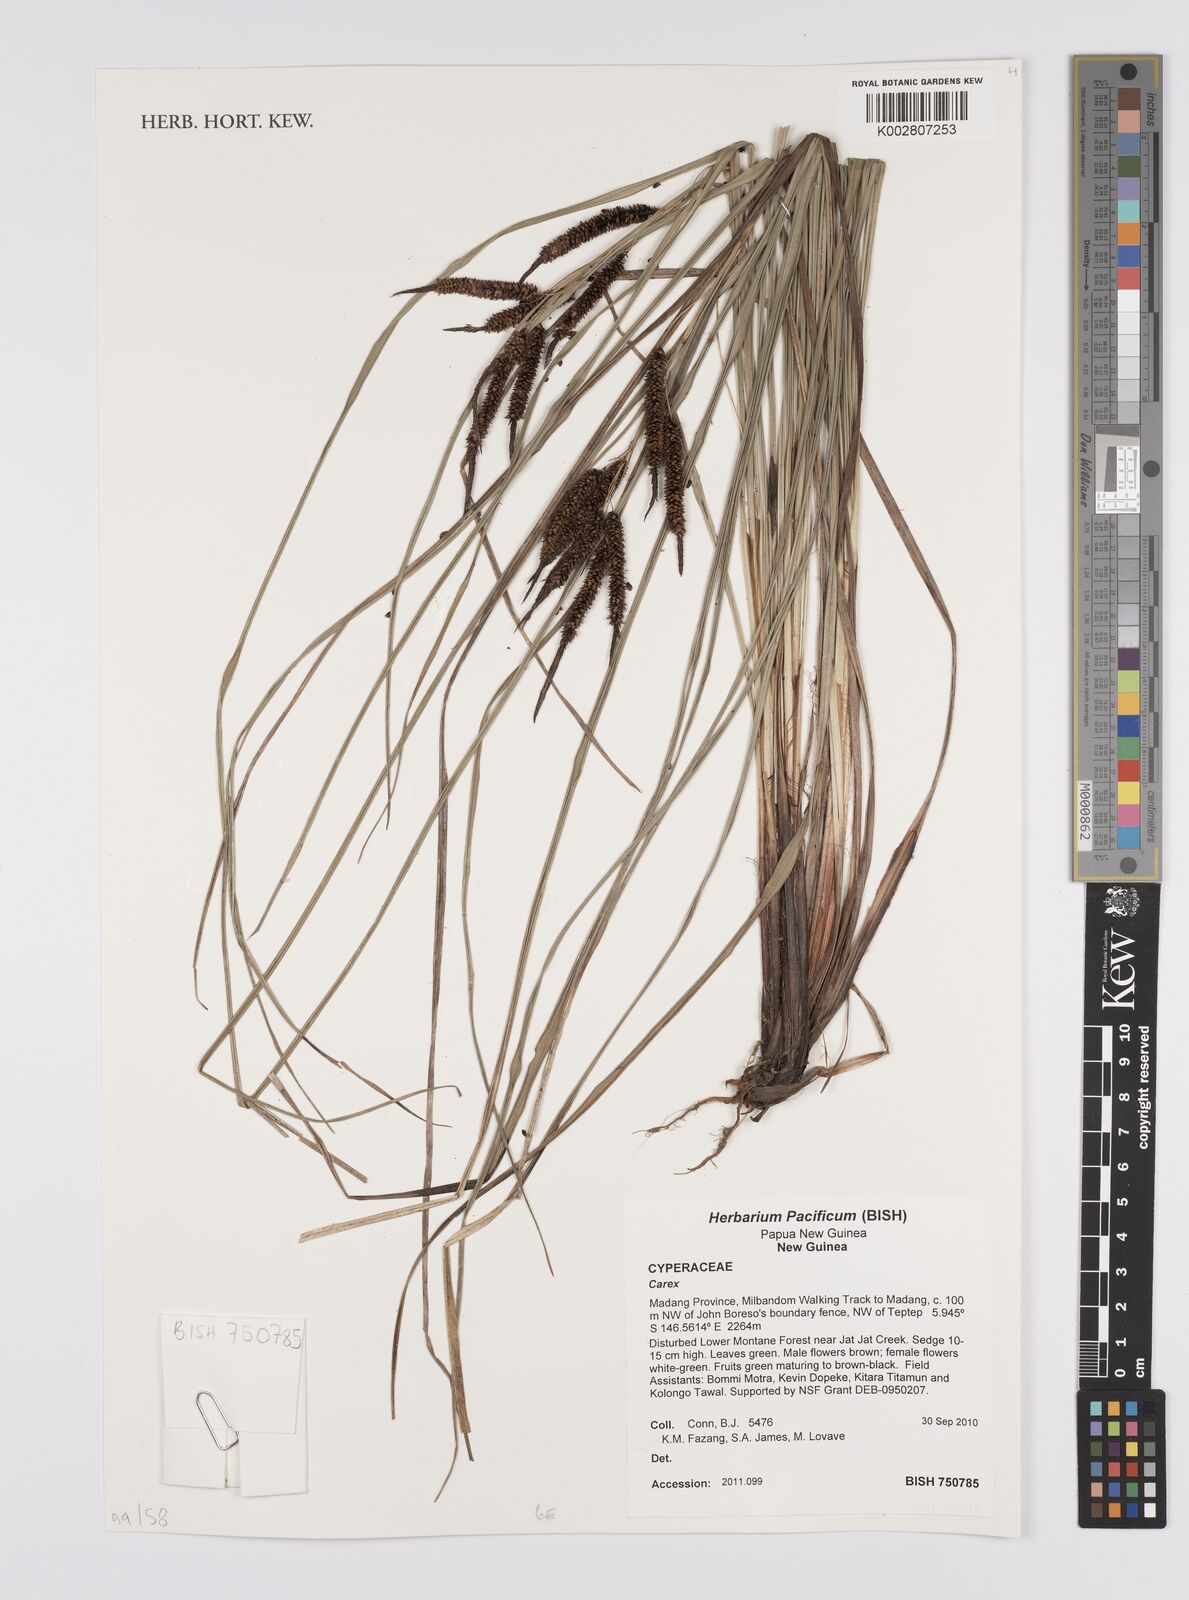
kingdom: Plantae
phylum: Tracheophyta
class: Liliopsida
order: Poales
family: Cyperaceae
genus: Carex
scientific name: Carex
